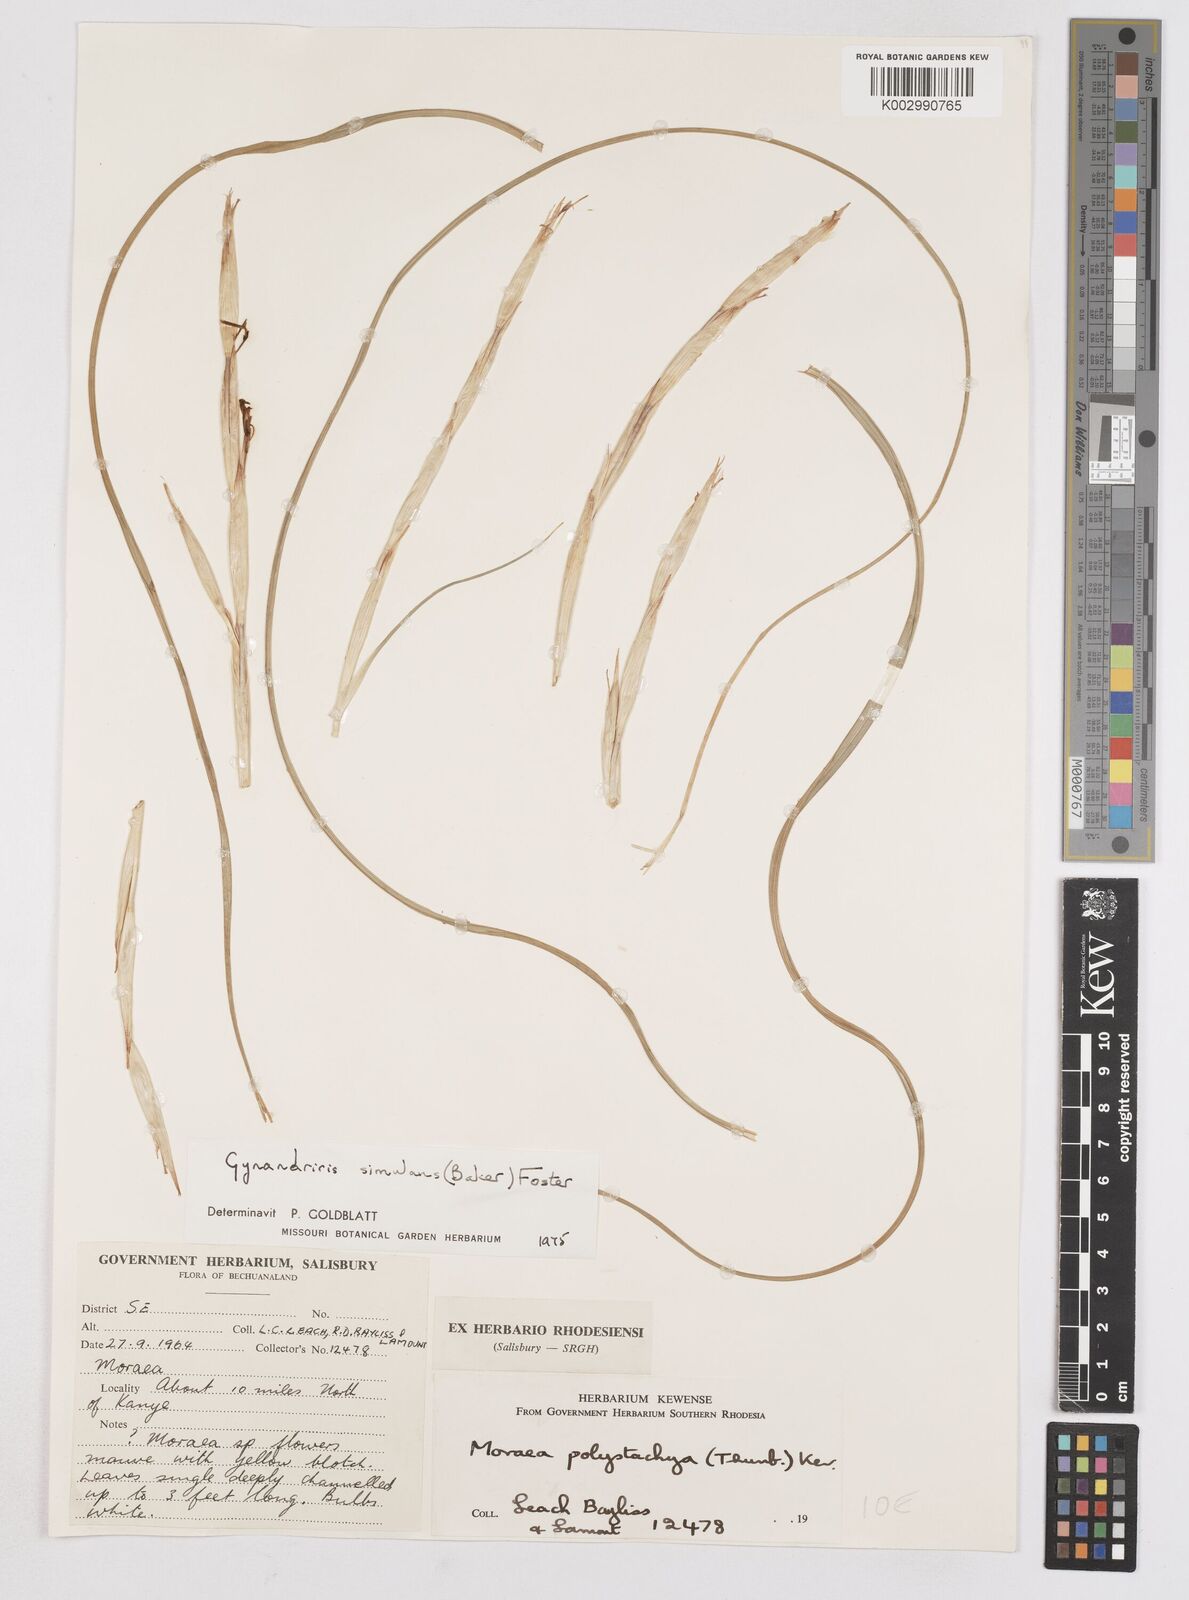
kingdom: Plantae
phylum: Tracheophyta
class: Liliopsida
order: Asparagales
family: Iridaceae
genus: Moraea
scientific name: Moraea simulans
